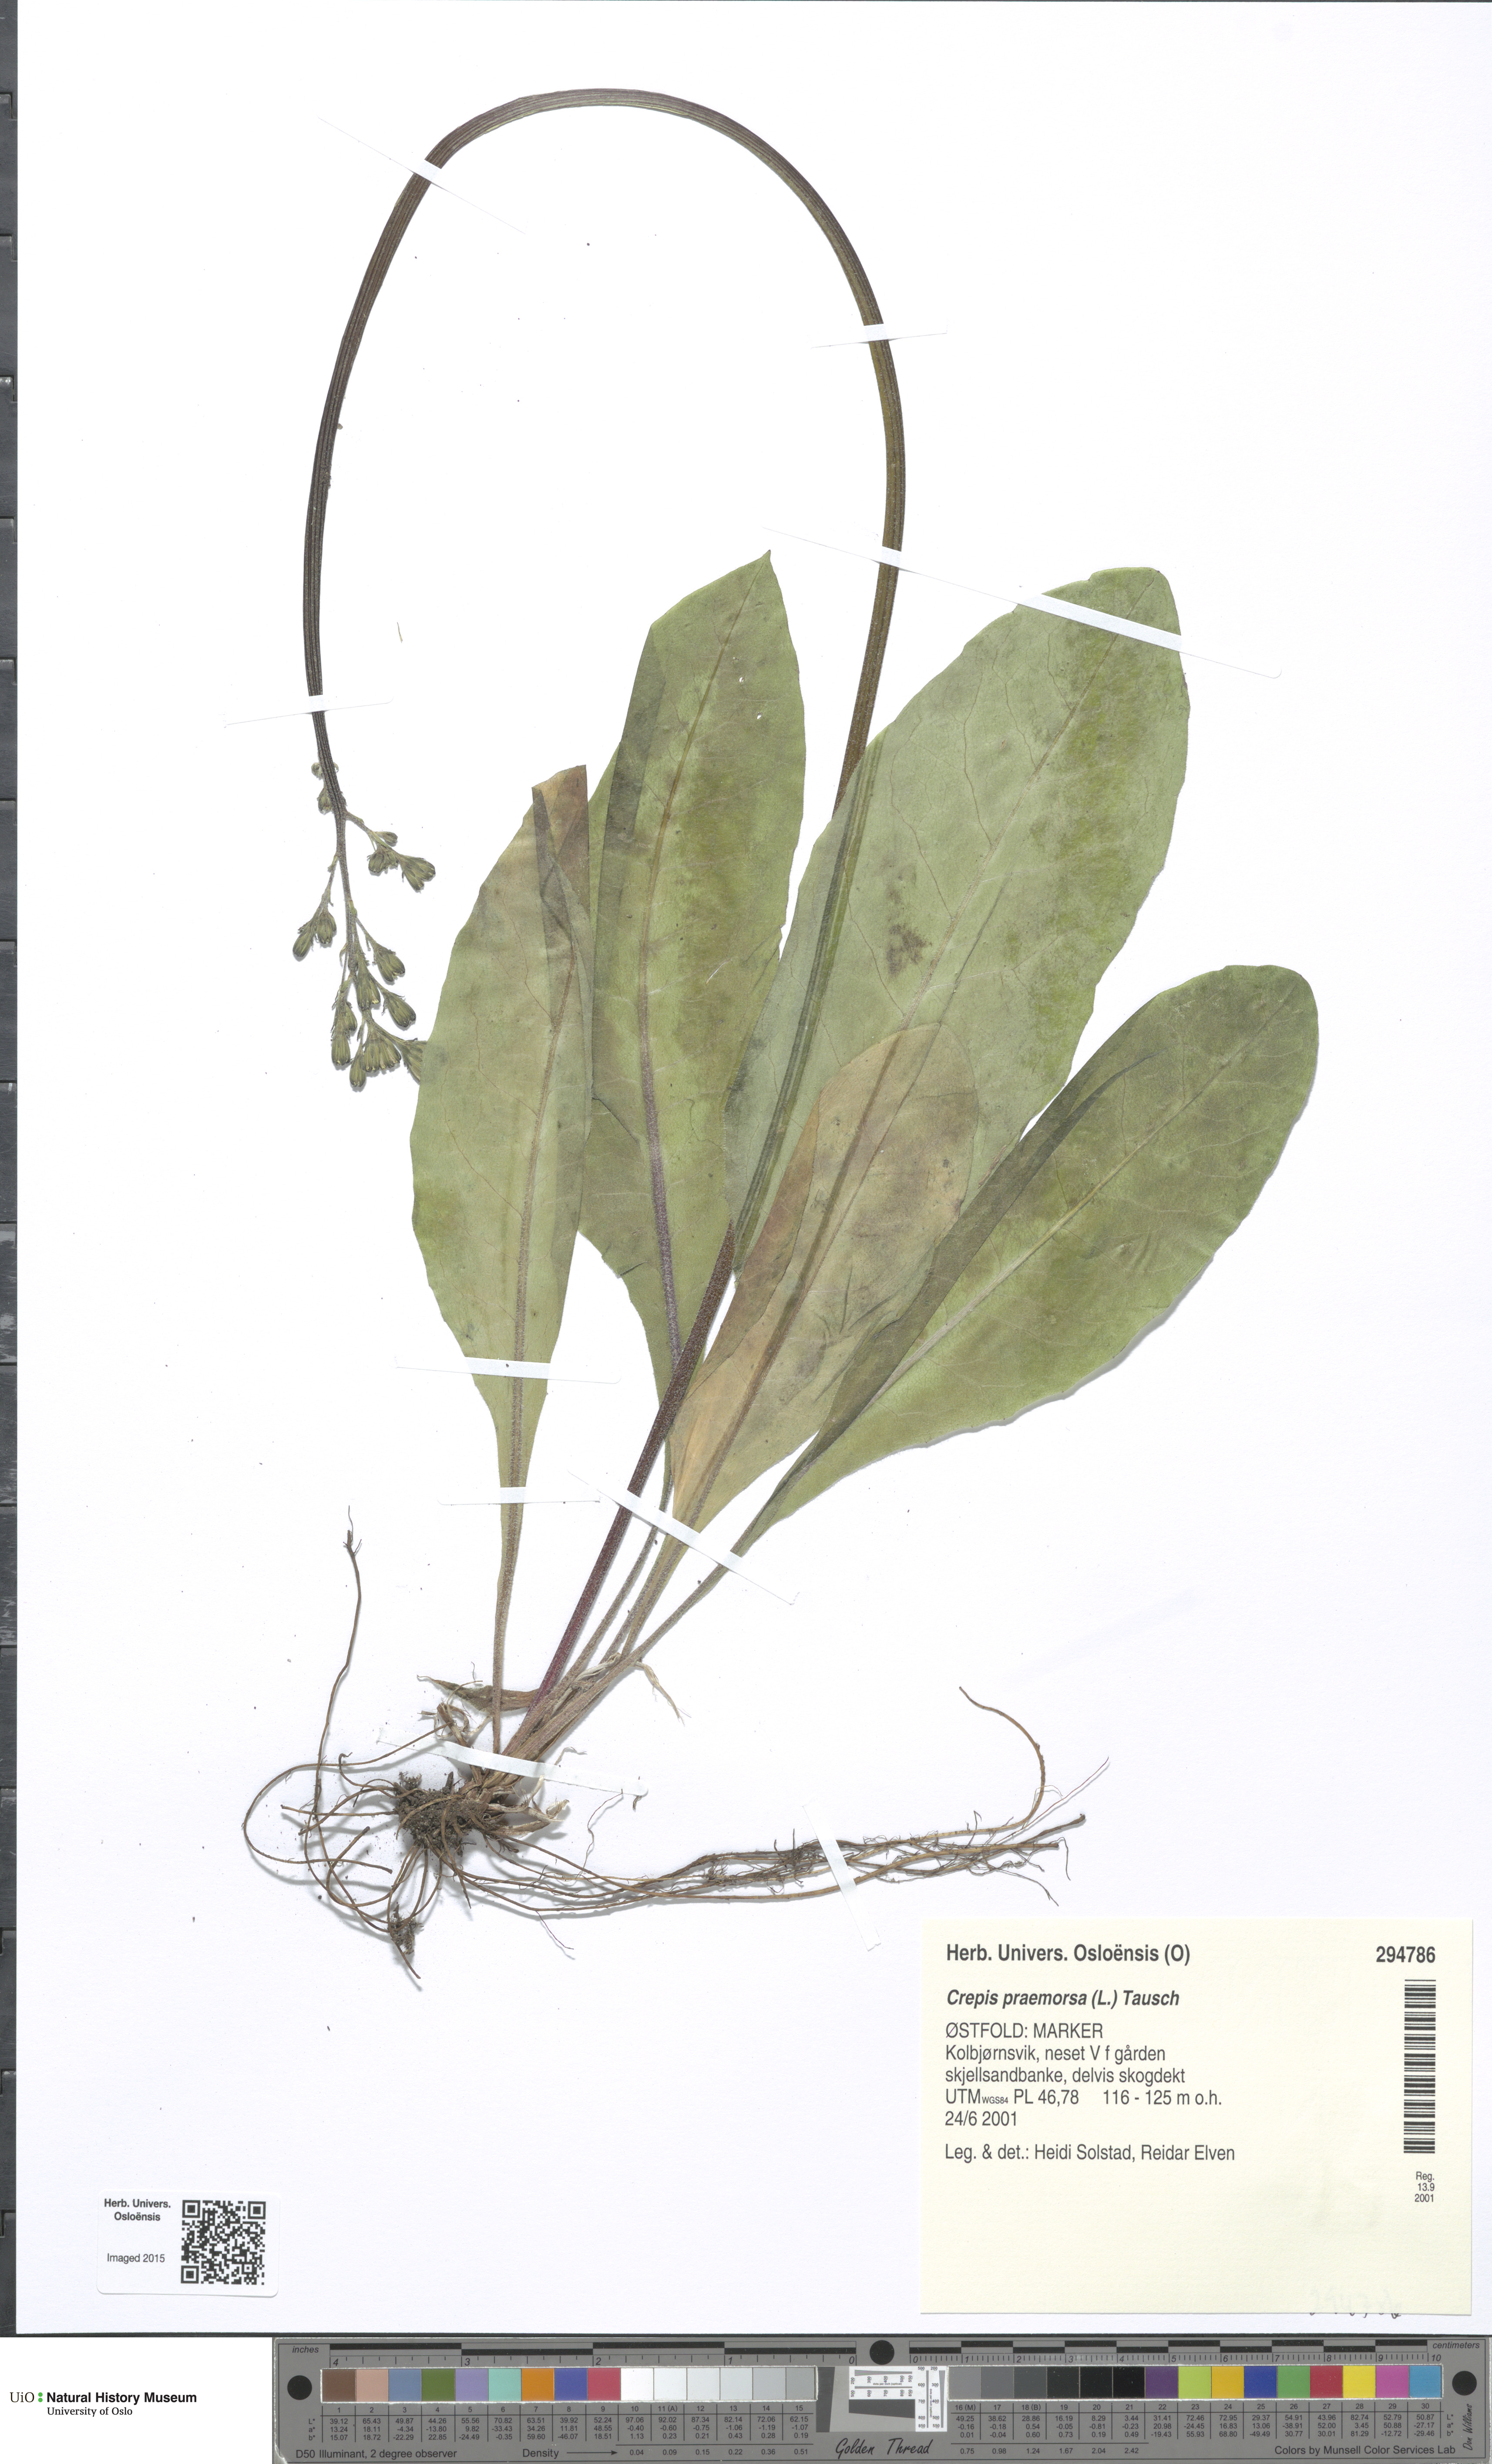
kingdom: Plantae
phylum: Tracheophyta
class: Magnoliopsida
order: Asterales
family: Asteraceae
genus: Crepis
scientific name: Crepis praemorsa
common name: Leafless hawk's-beard
